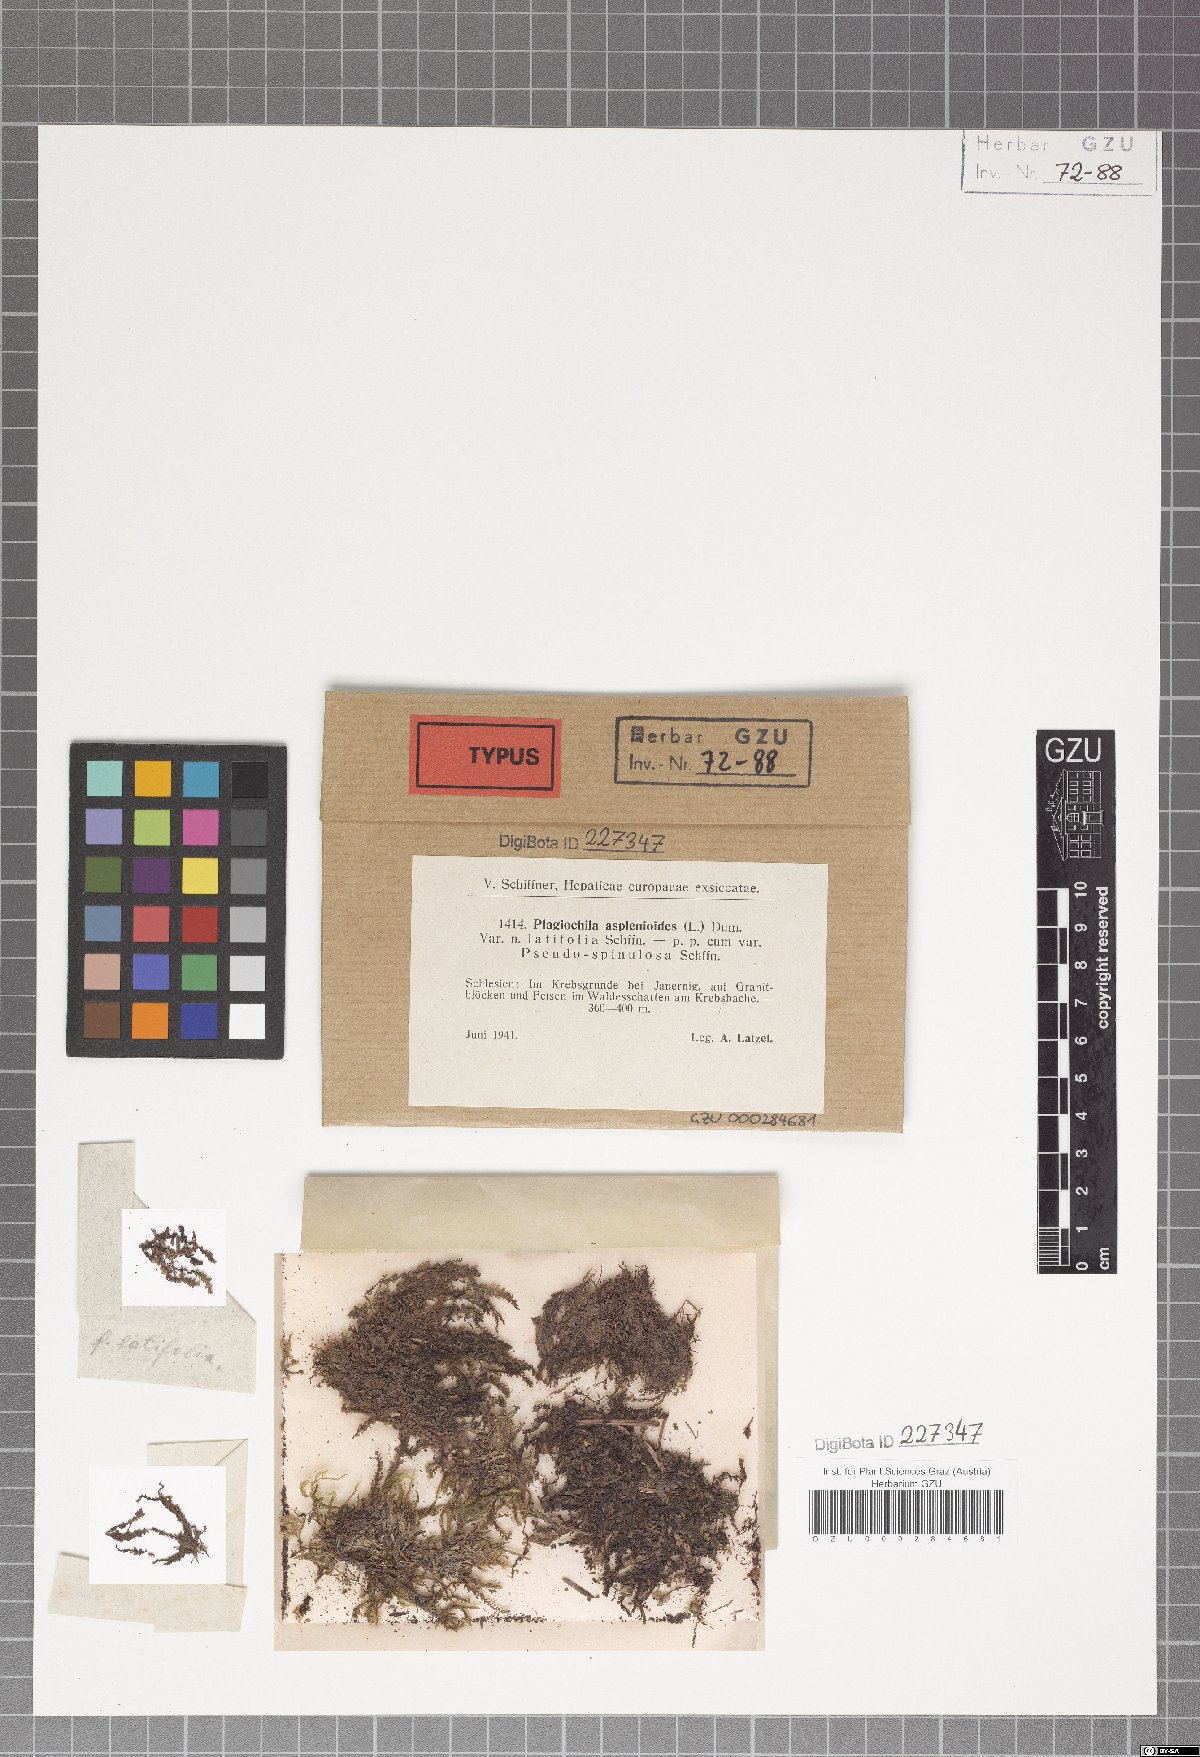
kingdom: Plantae
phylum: Marchantiophyta
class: Jungermanniopsida
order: Jungermanniales
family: Plagiochilaceae
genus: Plagiochila
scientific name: Plagiochila asplenioides
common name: Greater featherwort
